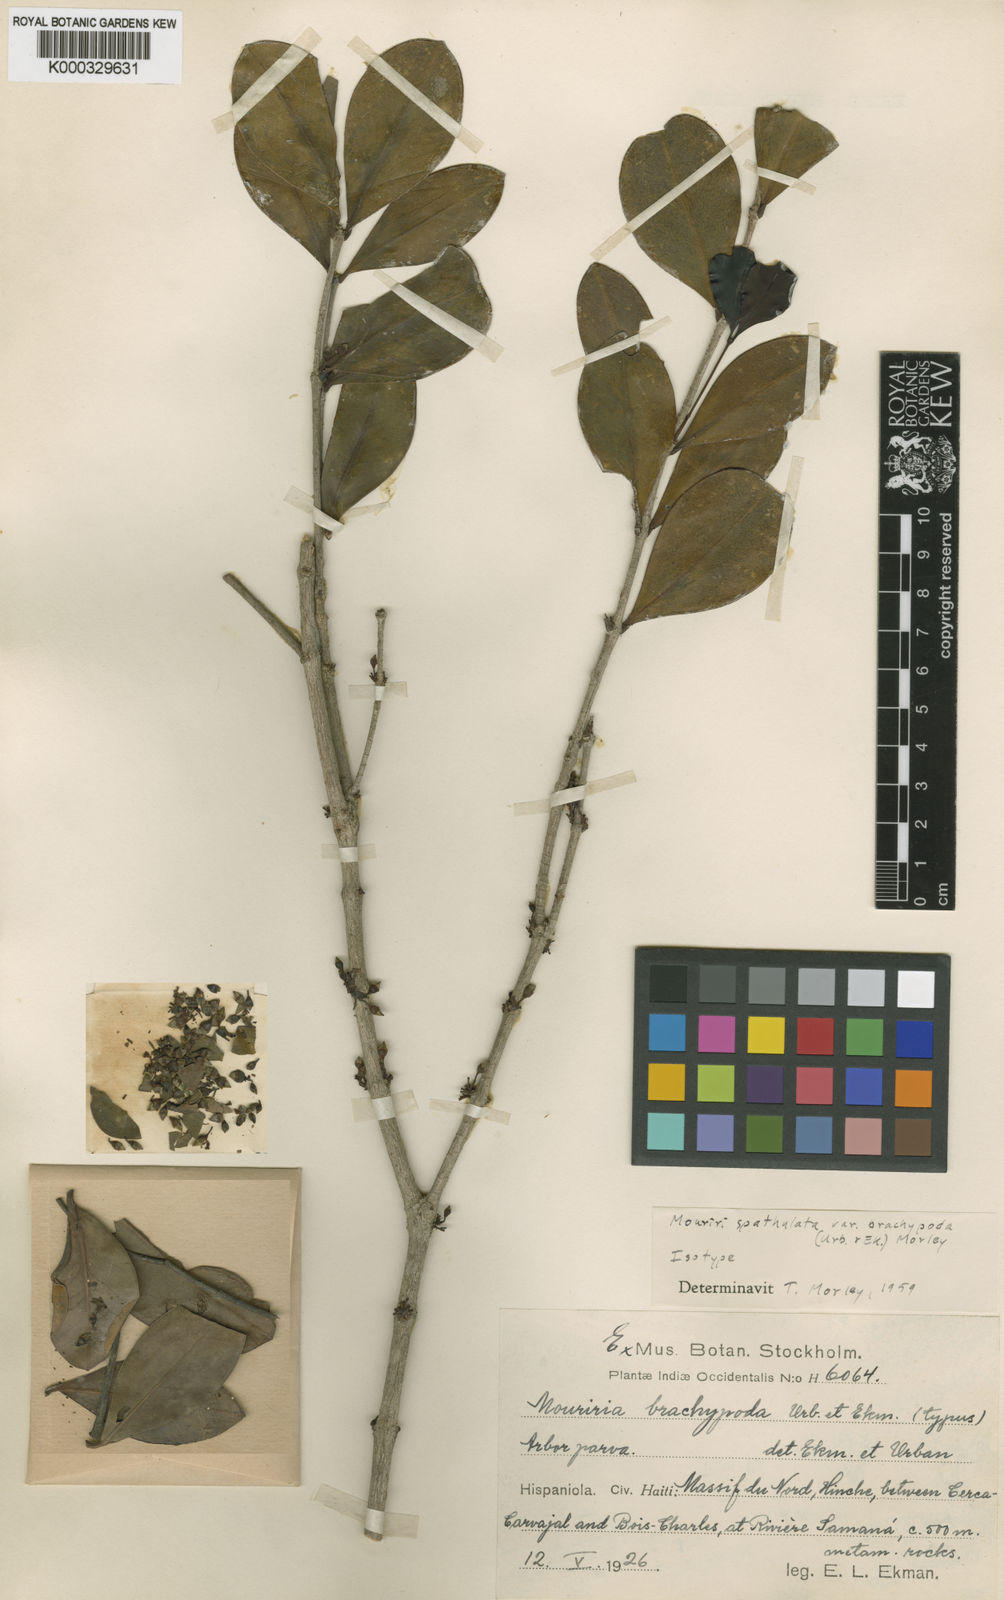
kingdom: Plantae
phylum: Tracheophyta
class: Magnoliopsida
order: Myrtales
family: Melastomataceae
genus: Mouriri
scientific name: Mouriri spathulata
